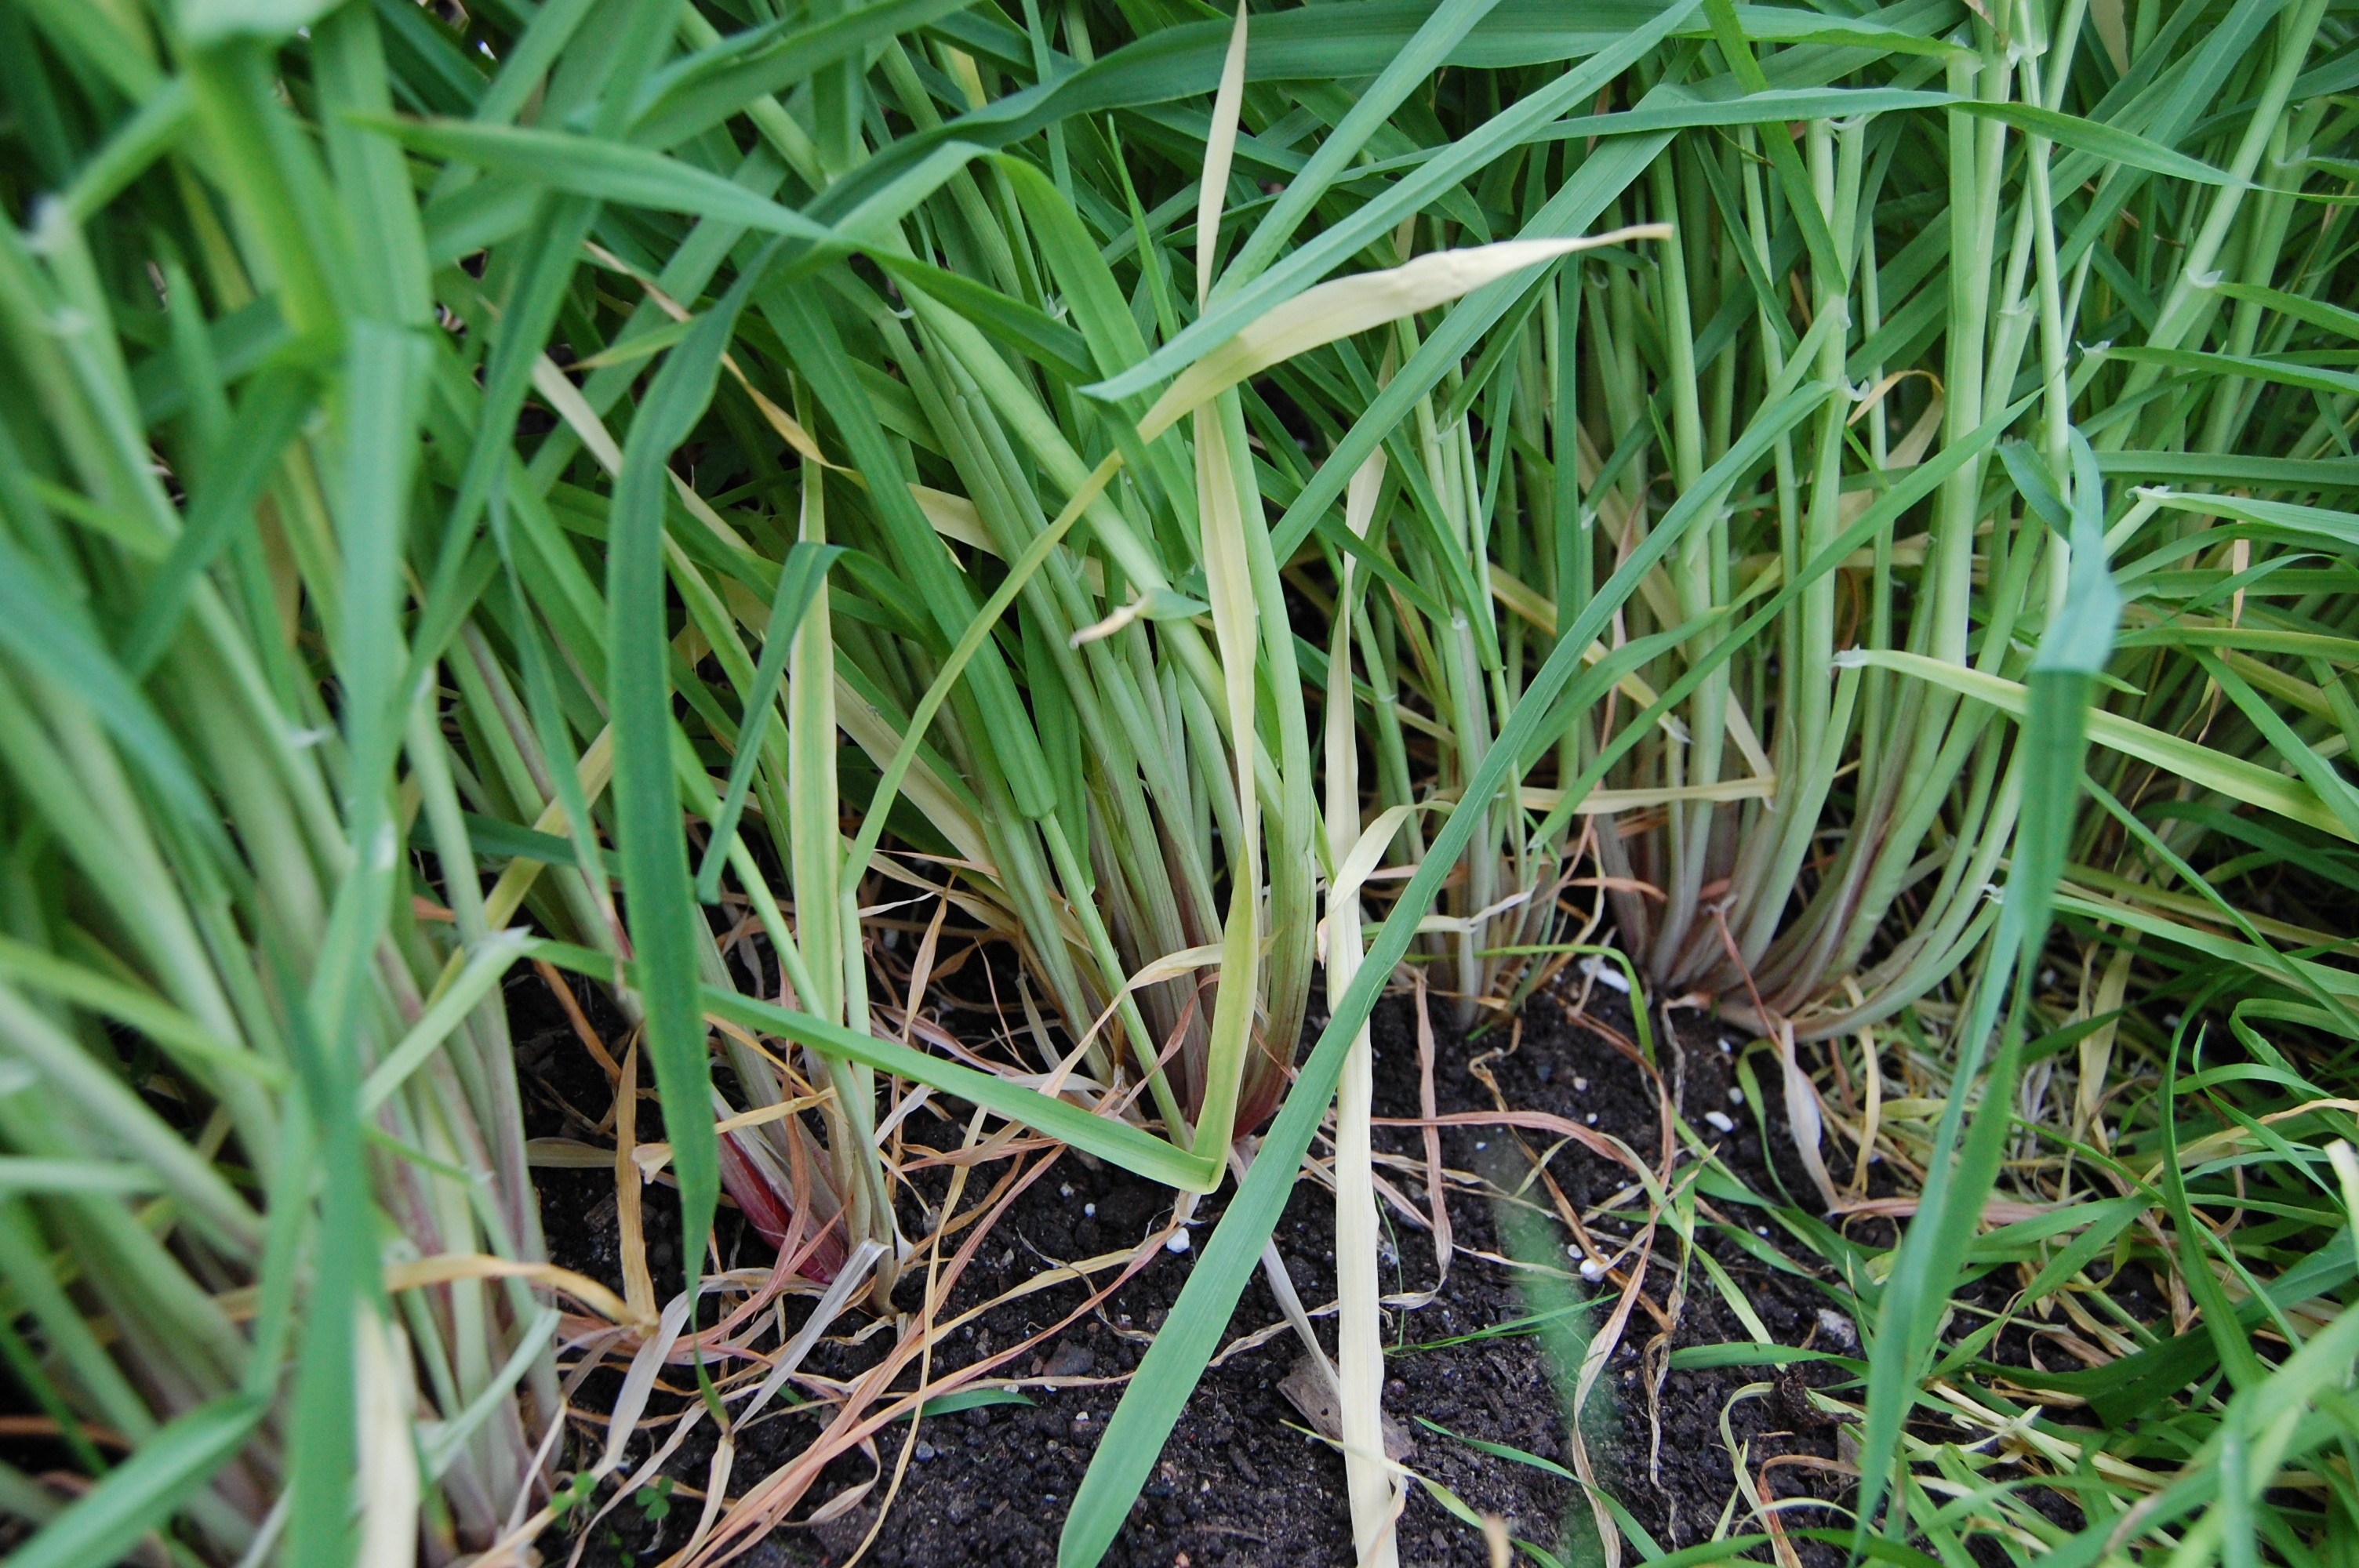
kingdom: Plantae
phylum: Tracheophyta
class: Liliopsida
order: Poales
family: Poaceae
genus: Hordeum
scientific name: Hordeum vulgare
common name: Common barley
